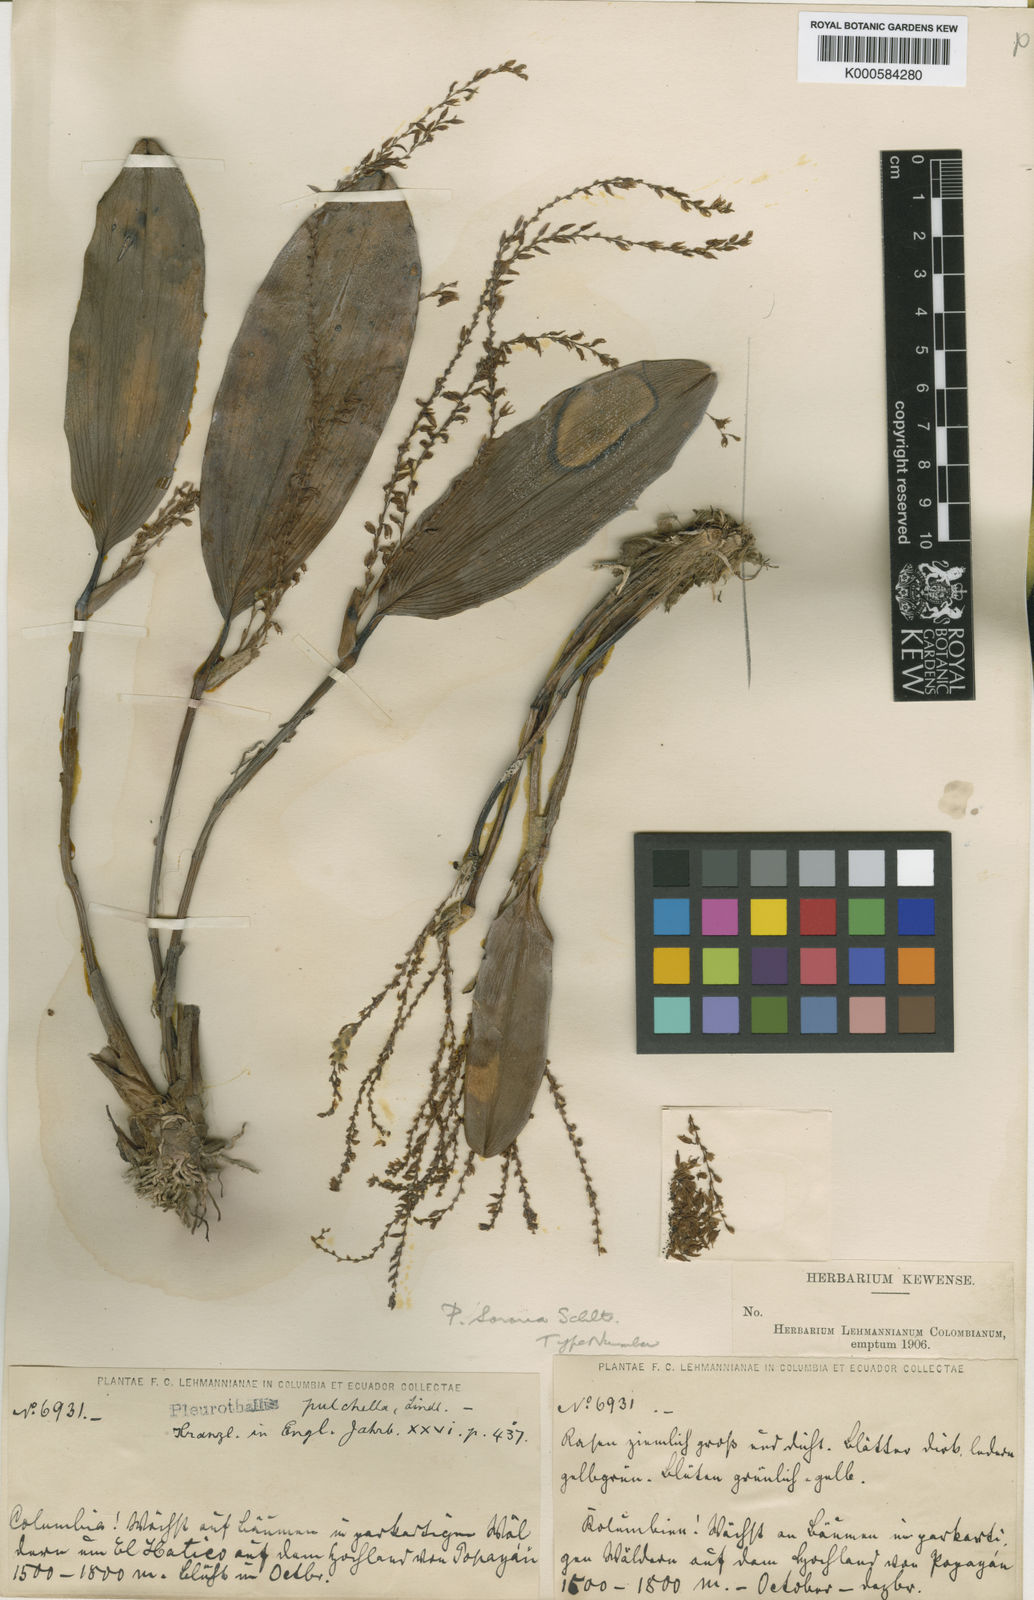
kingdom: Plantae
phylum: Tracheophyta
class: Liliopsida
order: Asparagales
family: Orchidaceae
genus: Acianthera
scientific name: Acianthera erinacea
